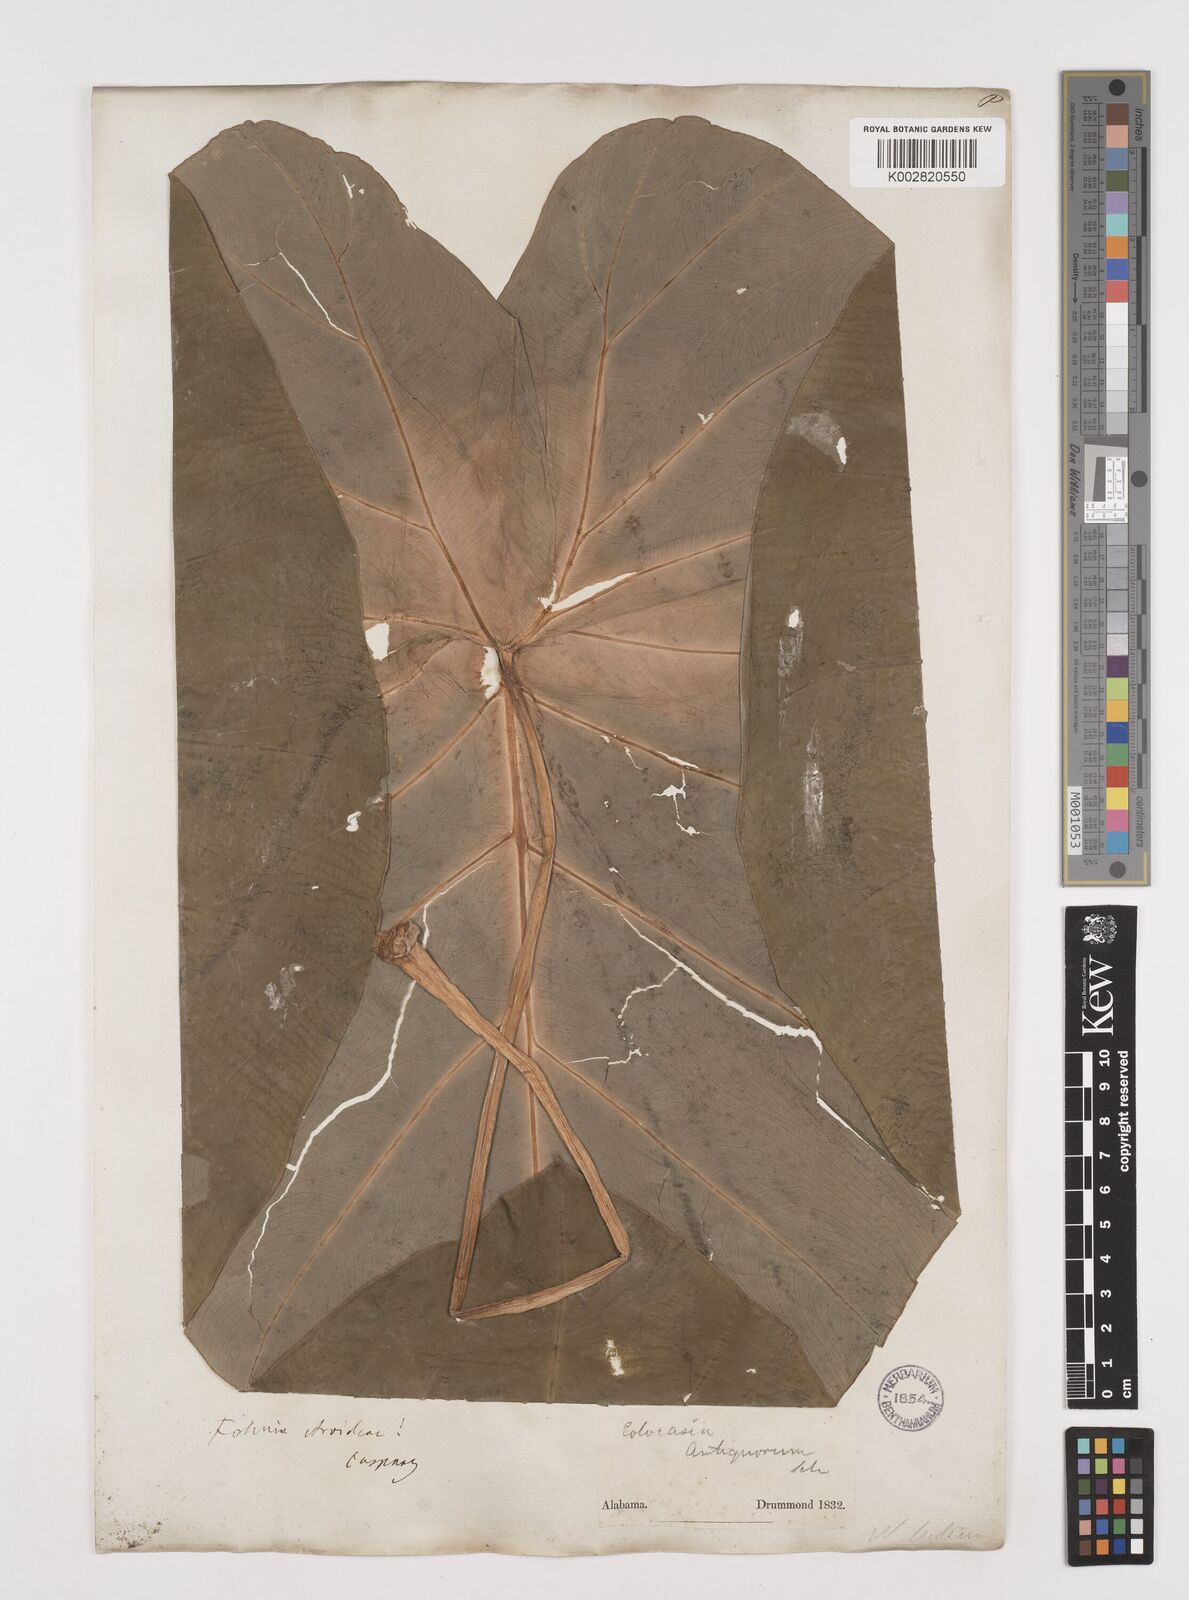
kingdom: Plantae
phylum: Tracheophyta
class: Liliopsida
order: Alismatales
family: Araceae
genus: Colocasia
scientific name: Colocasia esculenta
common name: Taro
